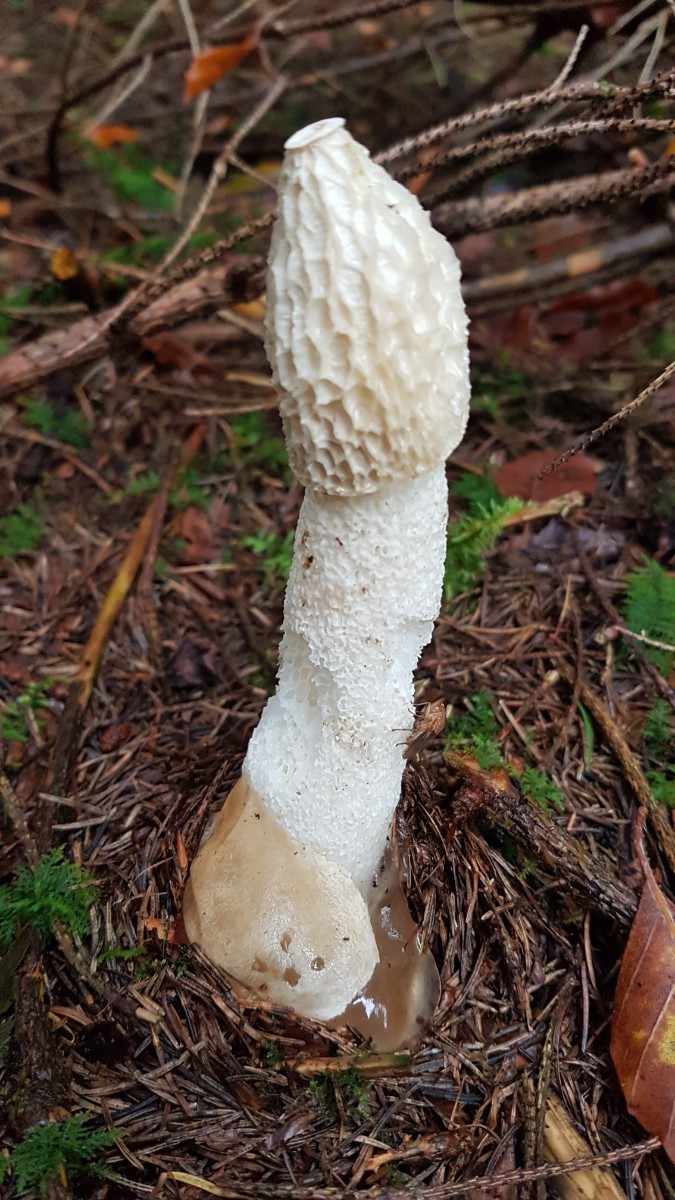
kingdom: Fungi
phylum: Basidiomycota
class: Agaricomycetes
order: Phallales
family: Phallaceae
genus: Phallus
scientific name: Phallus impudicus
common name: almindelig stinksvamp
